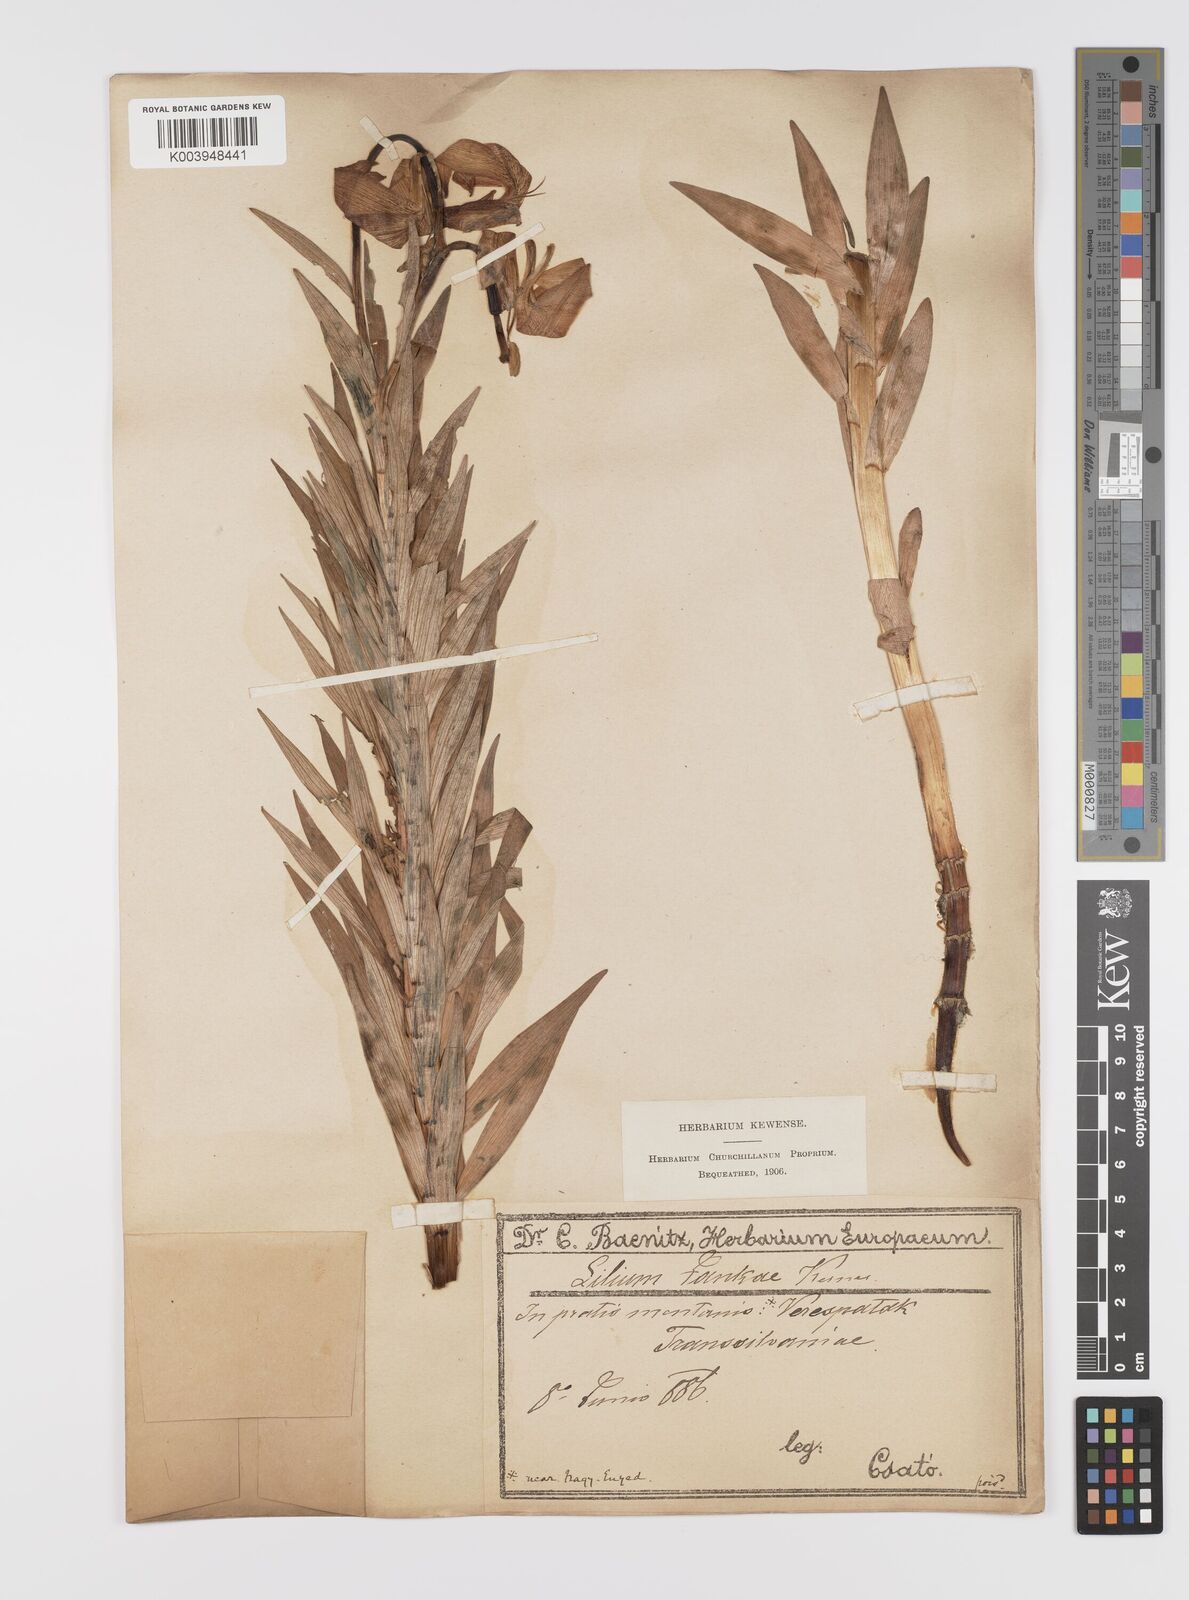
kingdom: Plantae
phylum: Tracheophyta
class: Liliopsida
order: Liliales
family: Liliaceae
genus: Lilium
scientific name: Lilium jankae
